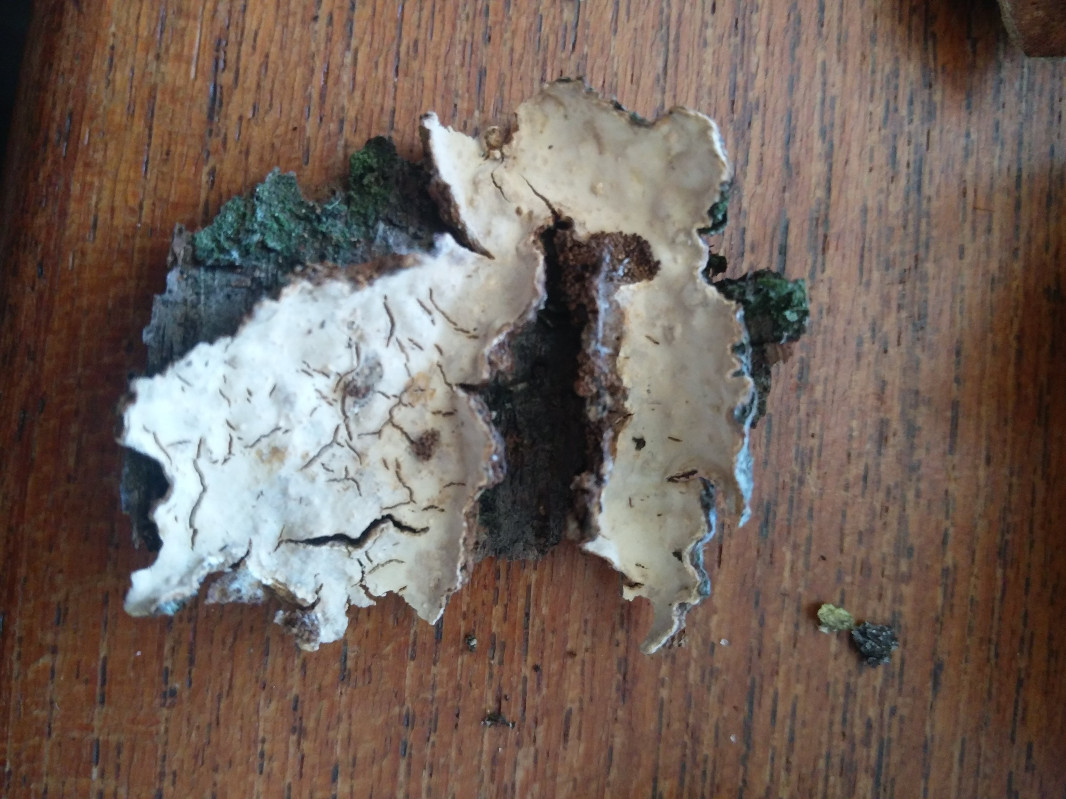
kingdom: Fungi
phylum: Basidiomycota
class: Agaricomycetes
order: Russulales
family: Stereaceae
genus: Stereum
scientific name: Stereum rugosum
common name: rynket lædersvamp
